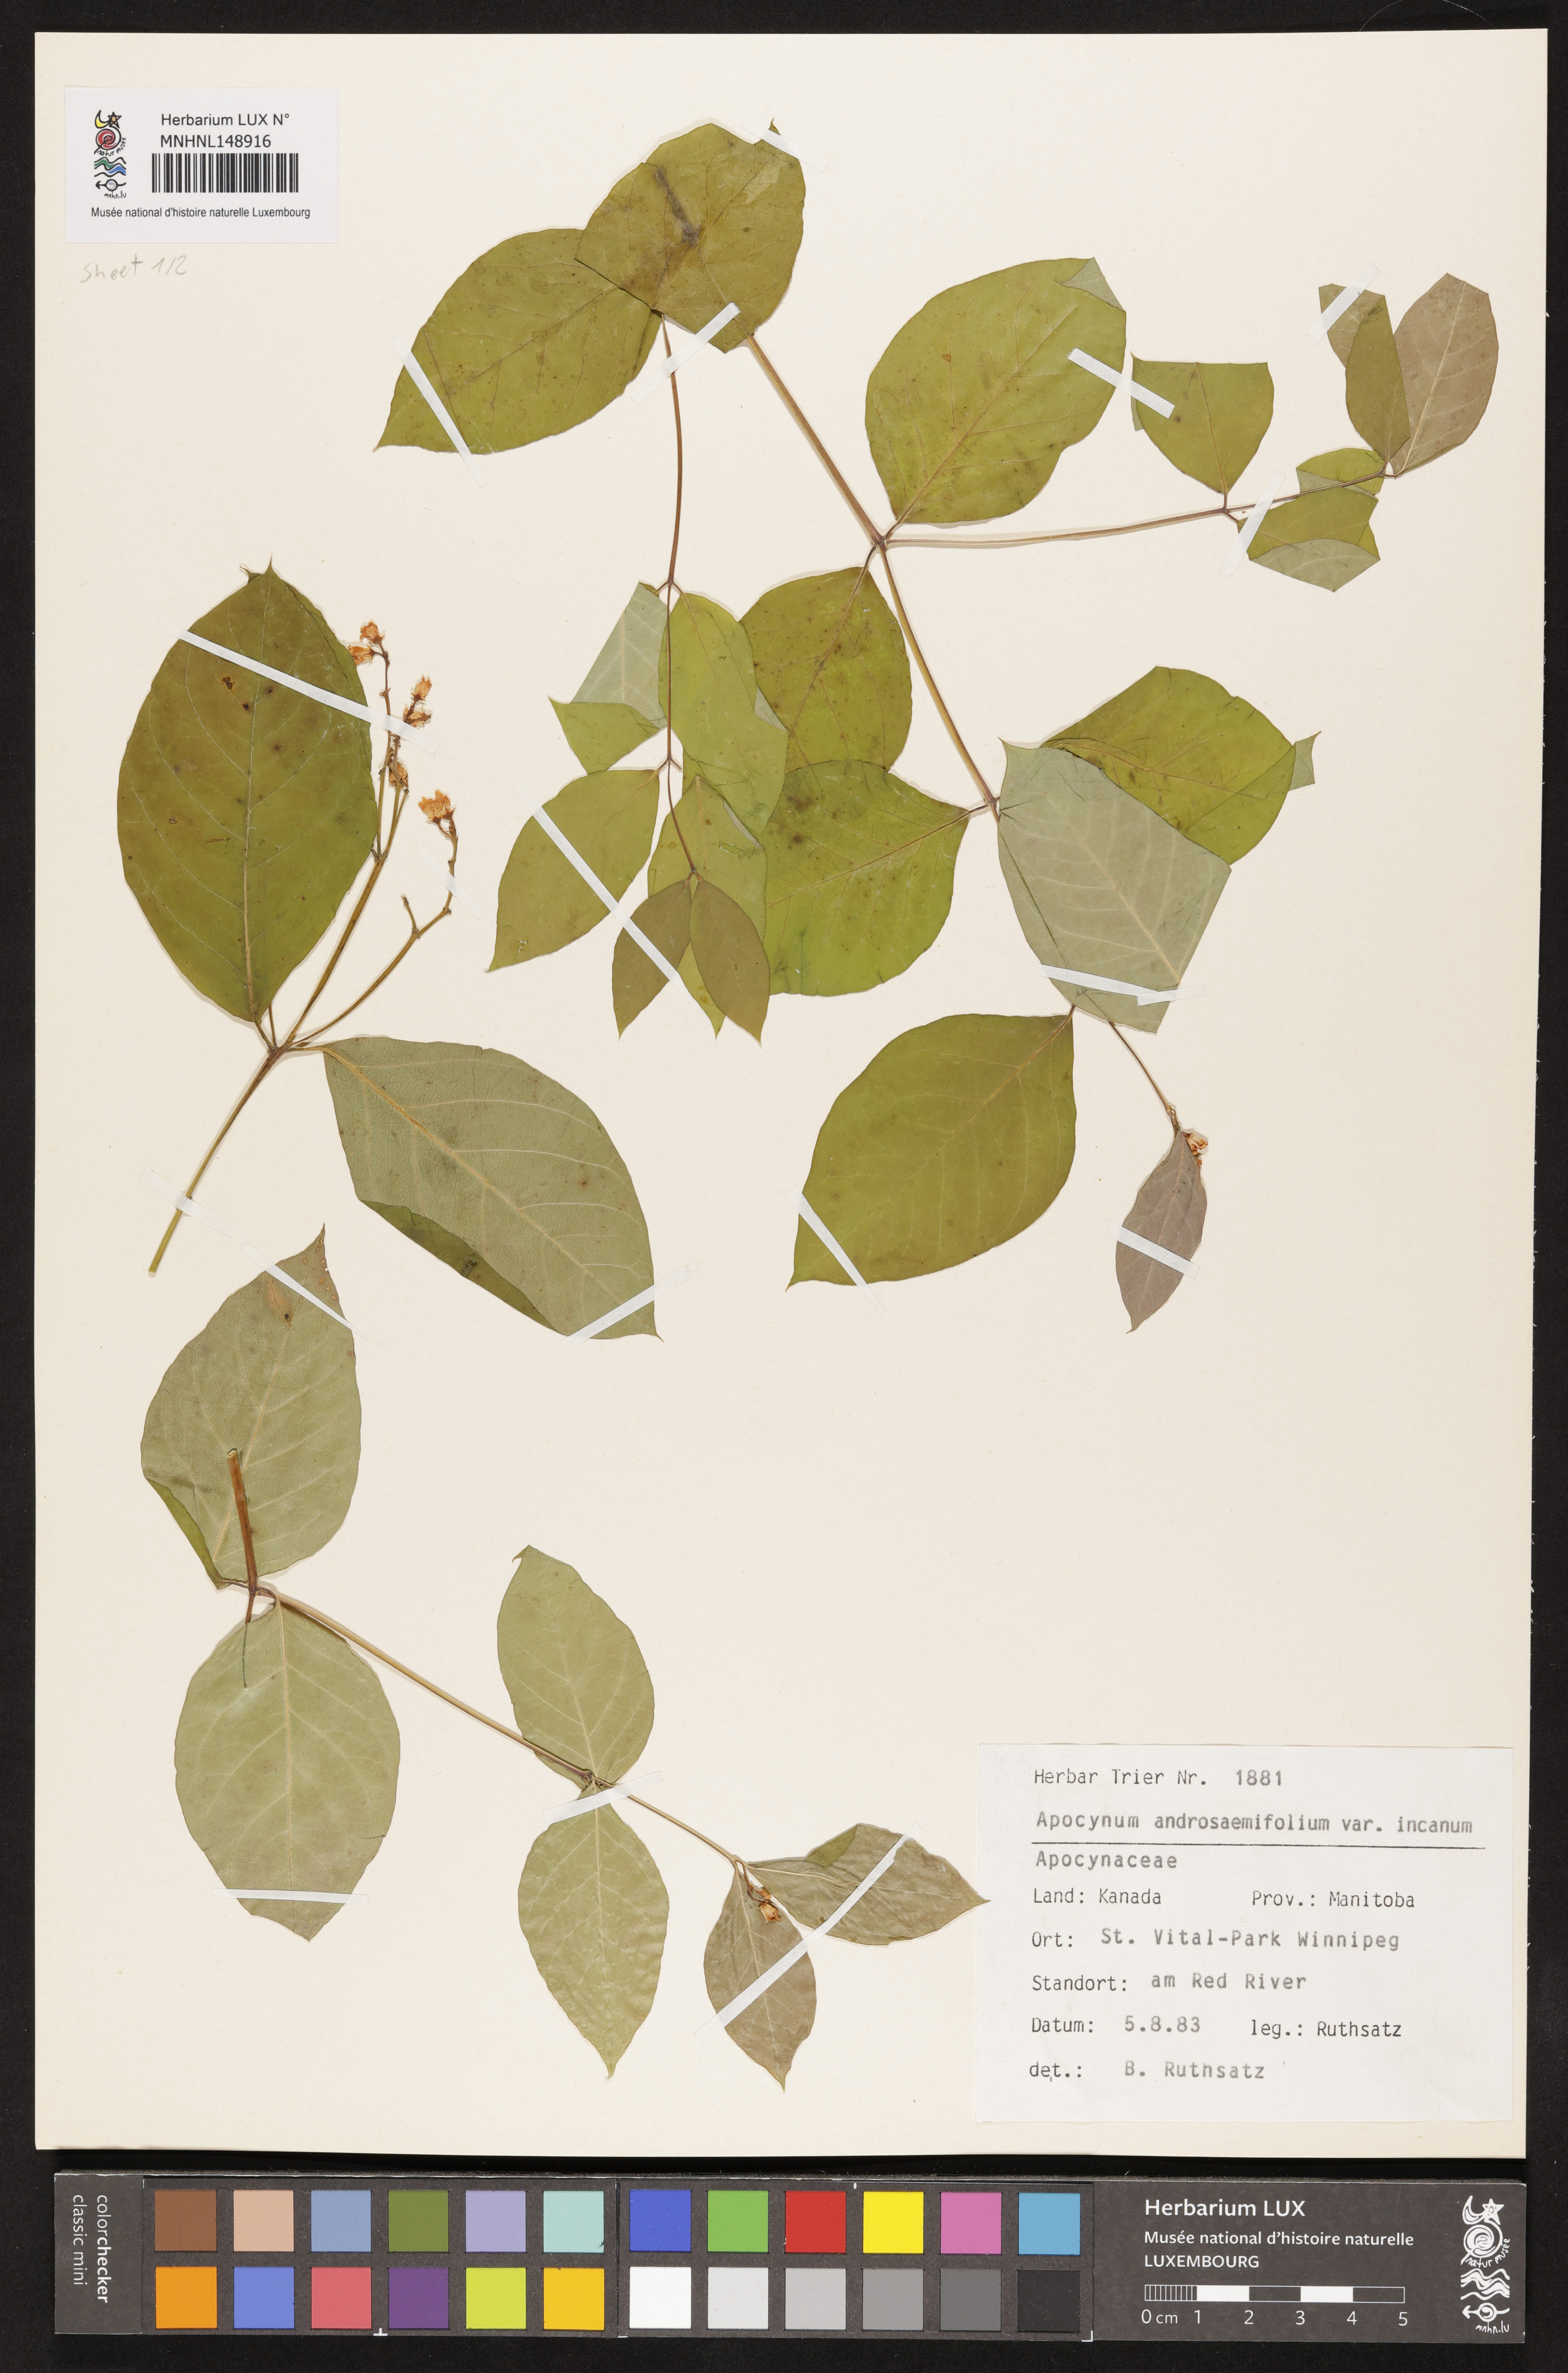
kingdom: Plantae
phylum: Tracheophyta
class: Magnoliopsida
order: Gentianales
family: Apocynaceae
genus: Apocynum
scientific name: Apocynum androsaemifolium
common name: Spreading dogbane
